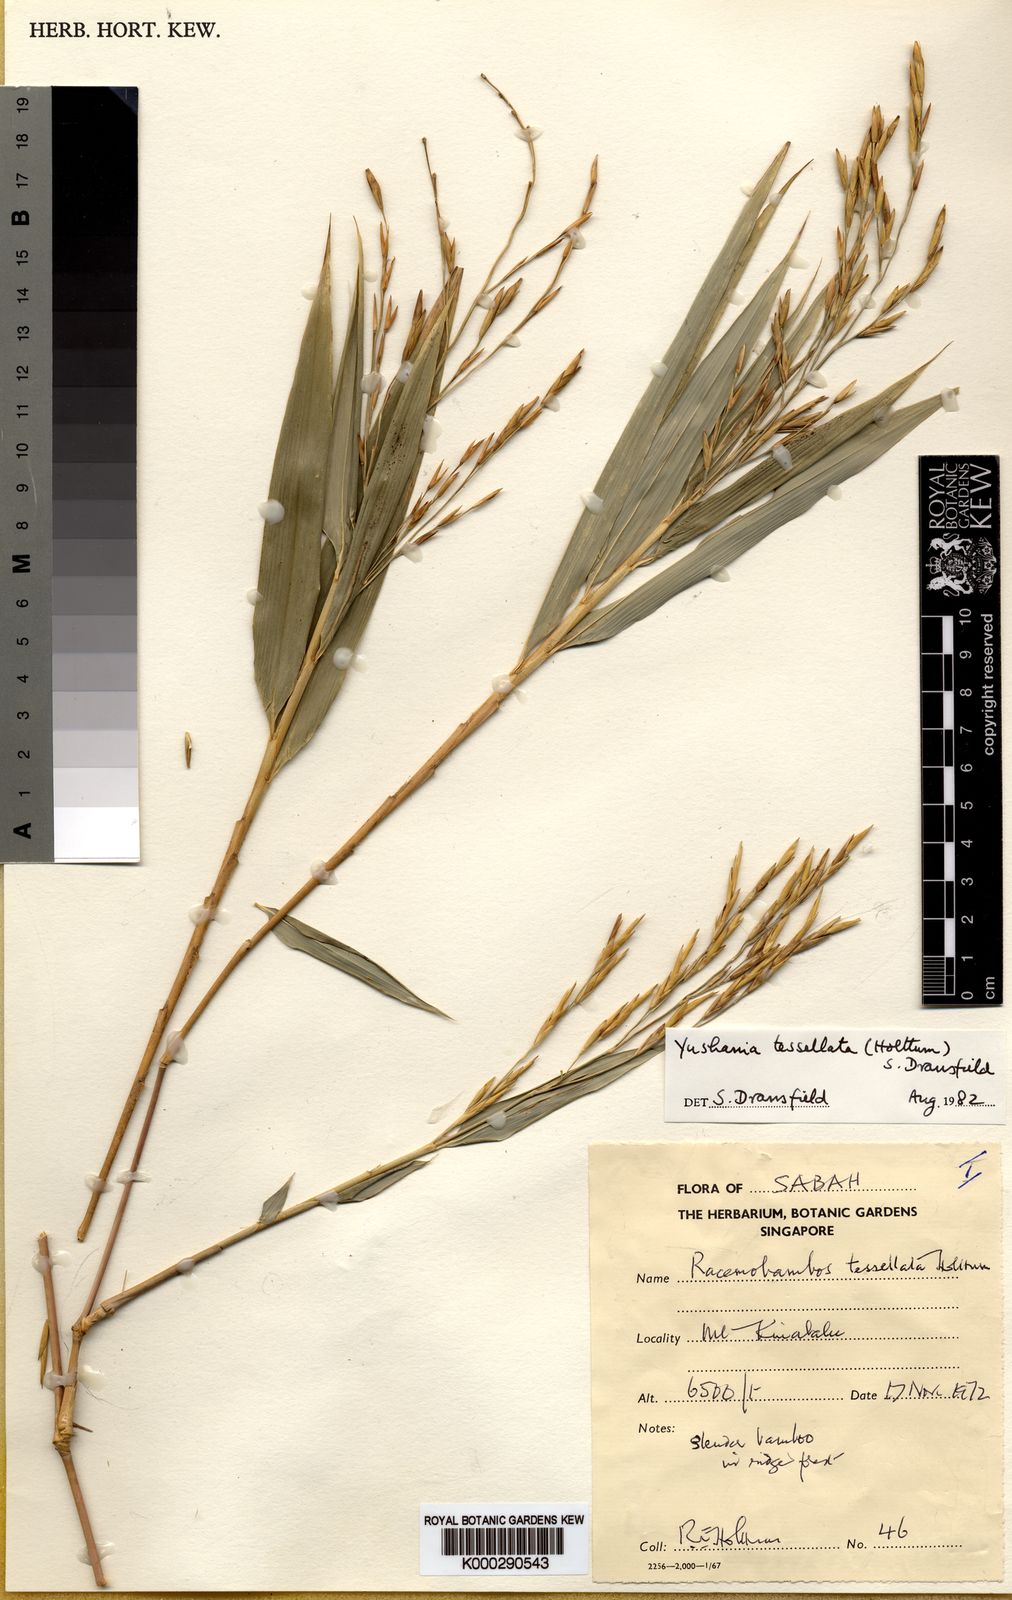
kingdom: Plantae
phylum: Tracheophyta
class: Liliopsida
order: Poales
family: Poaceae
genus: Yushania
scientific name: Yushania tessellata
